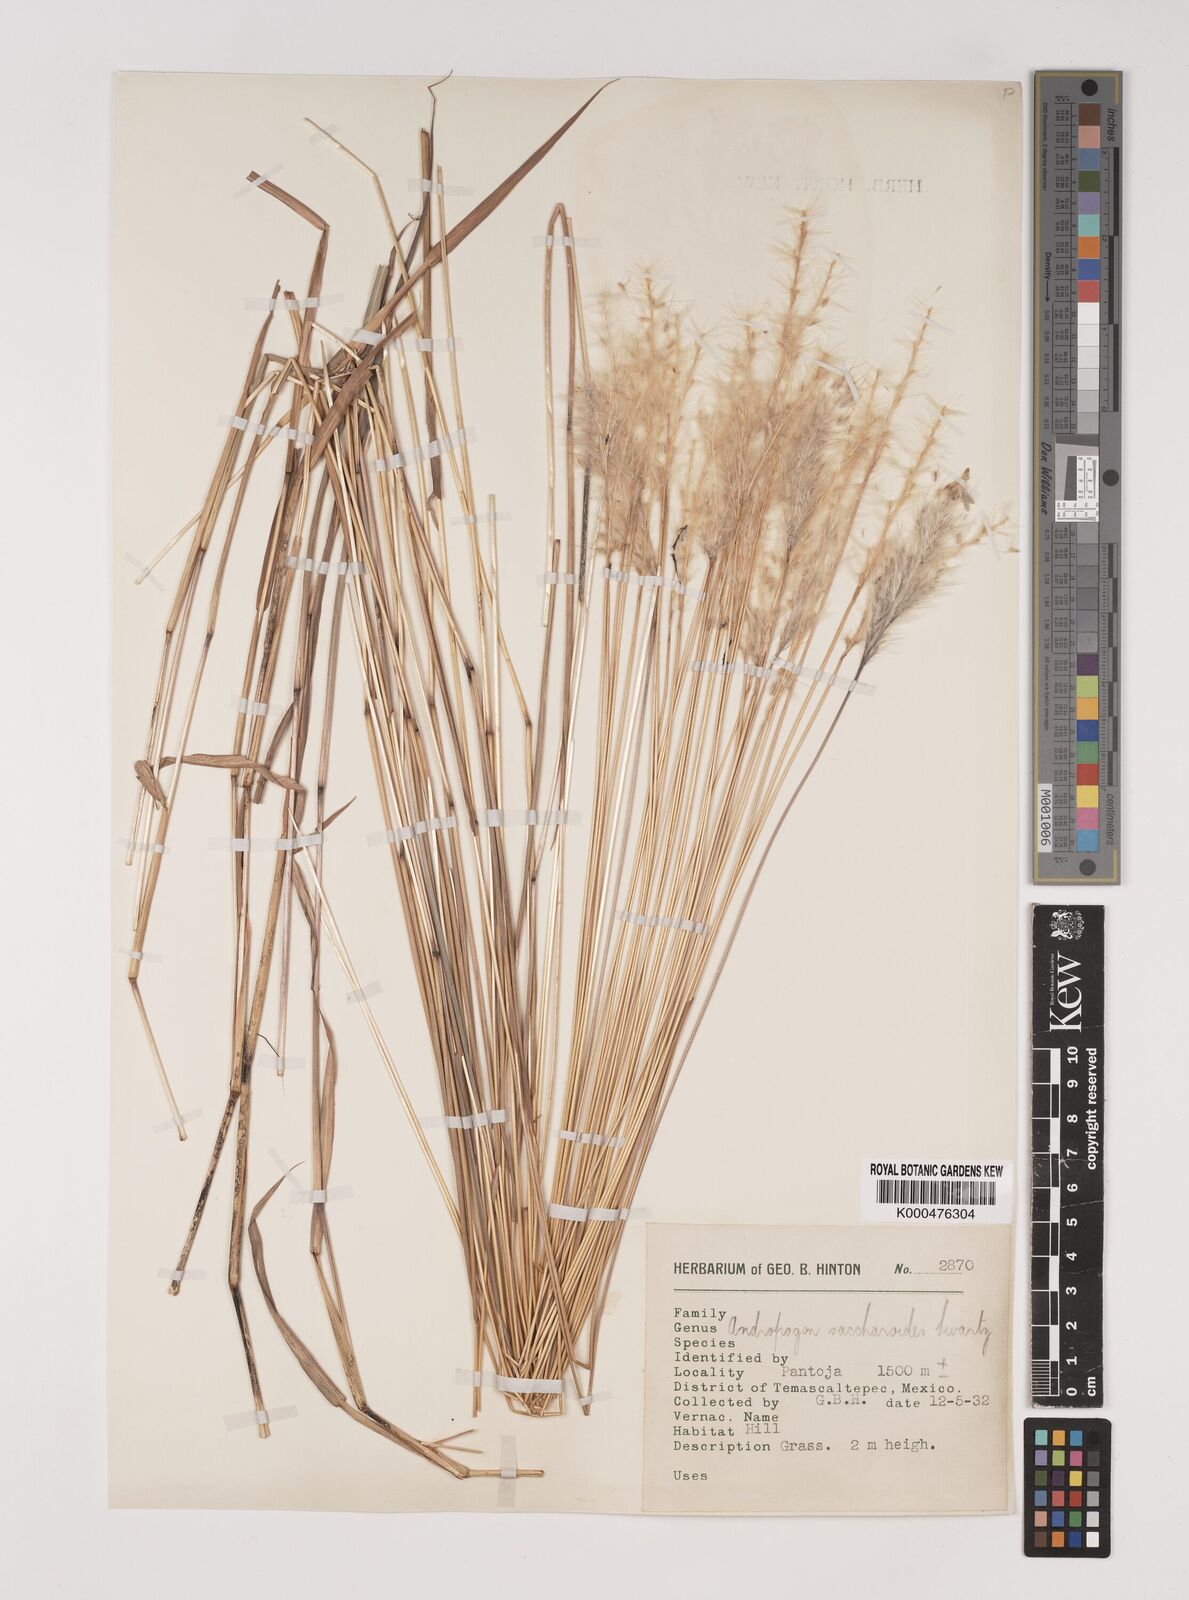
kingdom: Plantae
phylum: Tracheophyta
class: Liliopsida
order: Poales
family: Poaceae
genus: Bothriochloa
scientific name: Bothriochloa laguroides
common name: Silver bluestem
